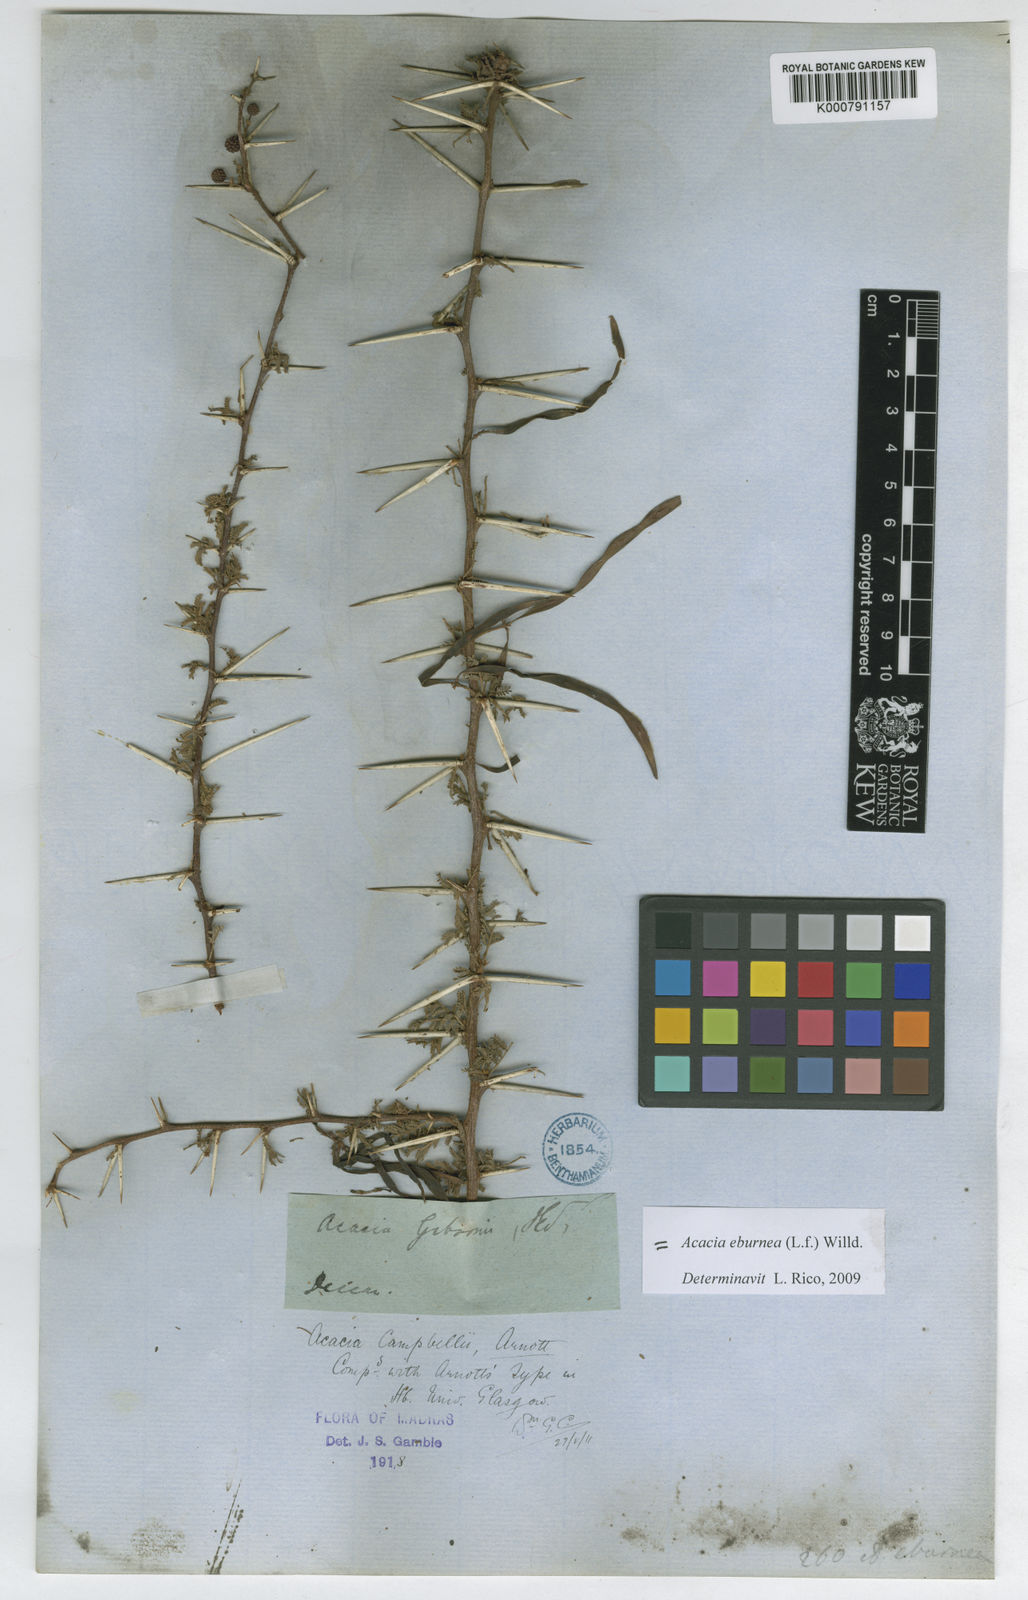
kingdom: Plantae
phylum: Tracheophyta
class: Magnoliopsida
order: Fabales
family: Fabaceae
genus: Vachellia
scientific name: Vachellia eburnea
